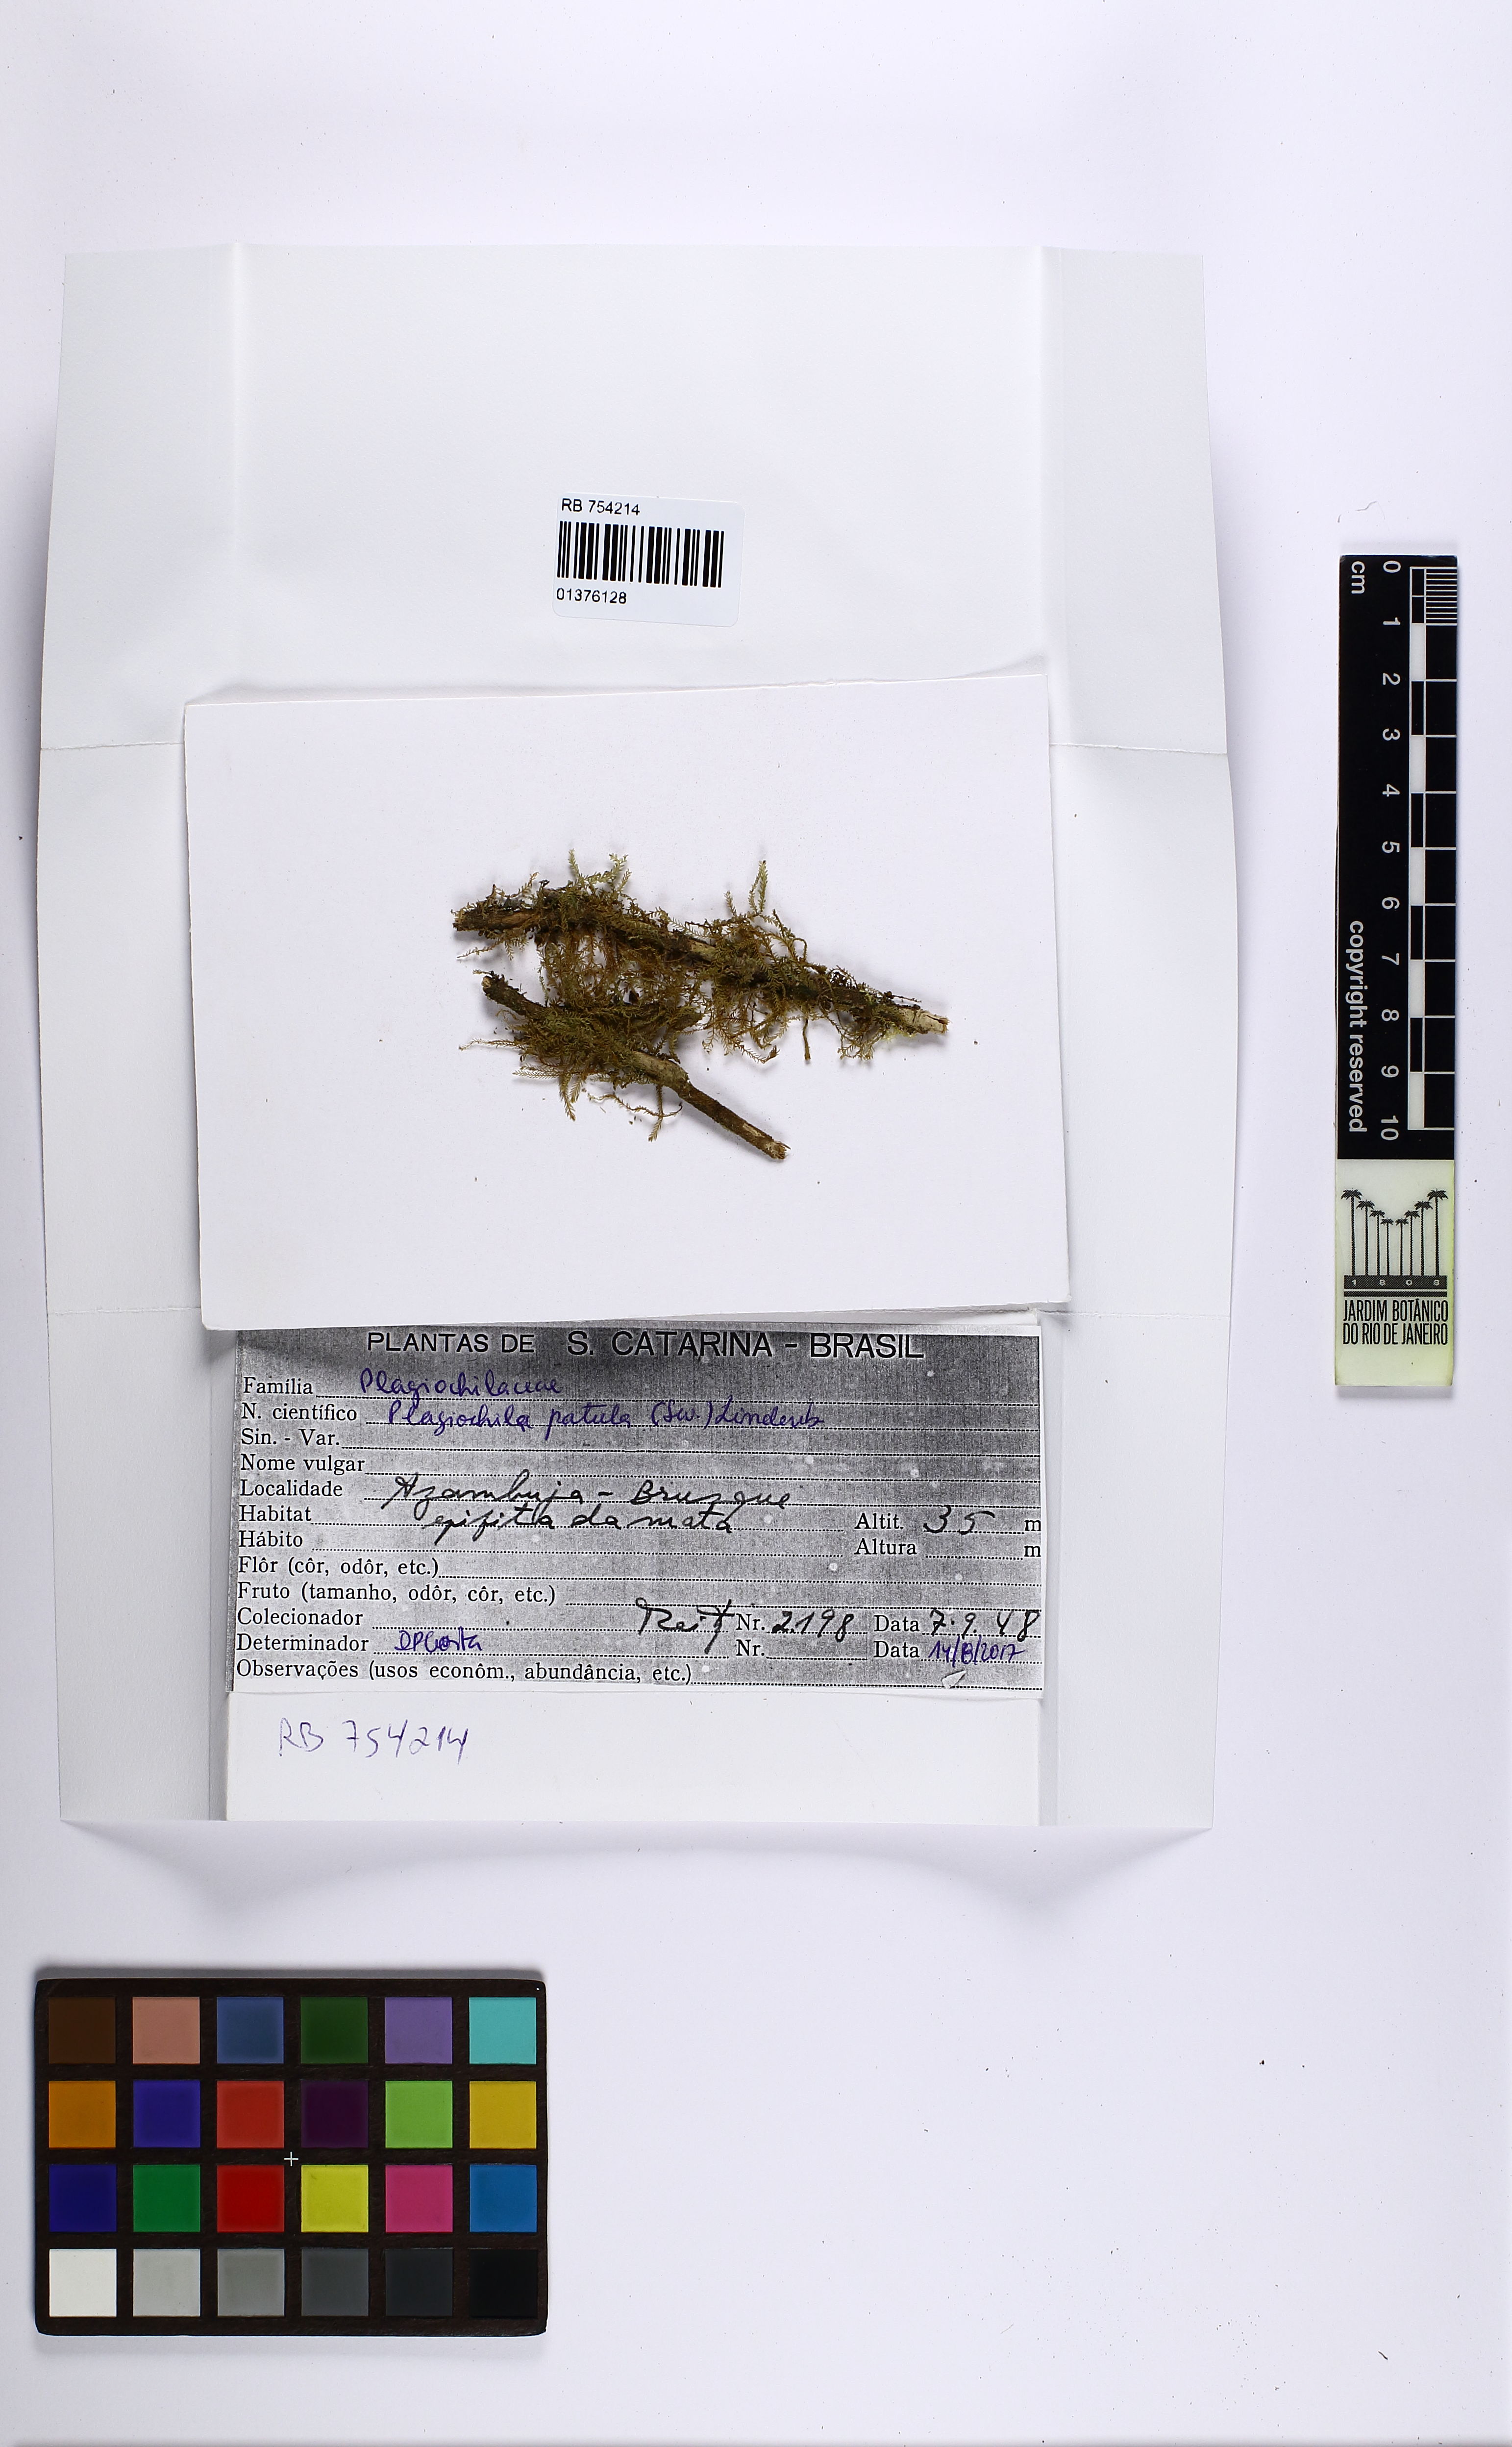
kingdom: Plantae
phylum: Marchantiophyta
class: Jungermanniopsida
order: Jungermanniales
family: Plagiochilaceae
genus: Plagiochila
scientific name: Plagiochila patula
